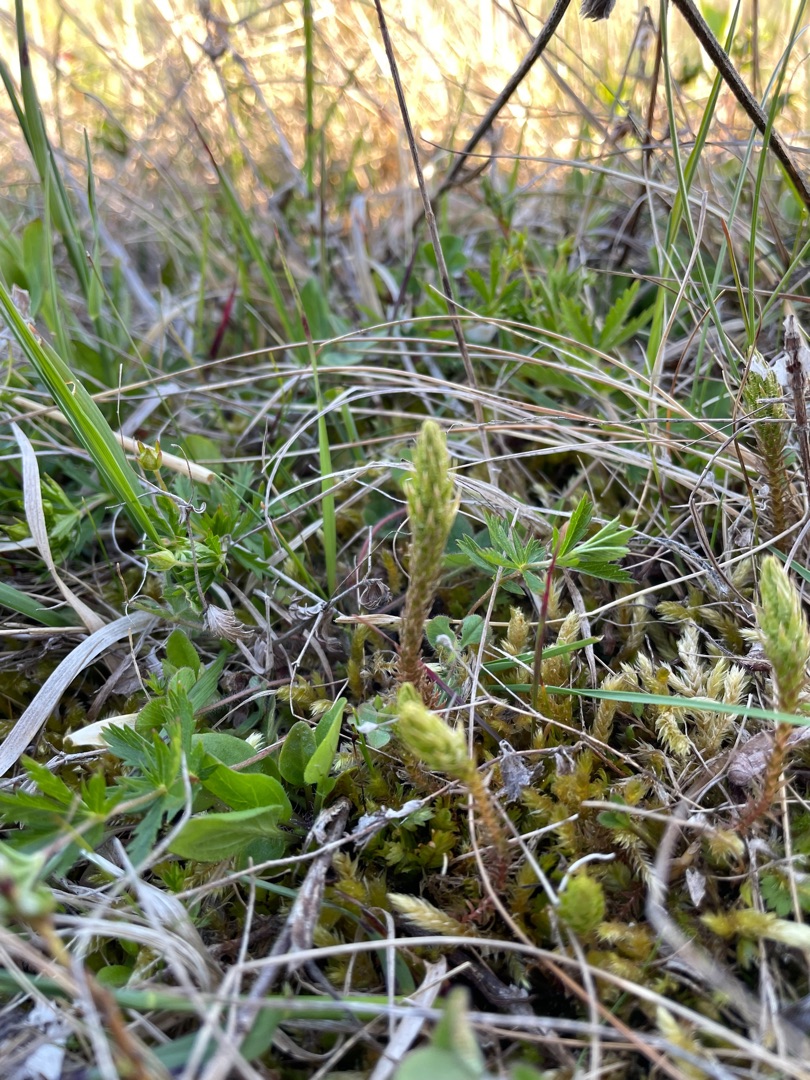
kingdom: Plantae
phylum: Tracheophyta
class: Lycopodiopsida
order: Selaginellales
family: Selaginellaceae
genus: Selaginella
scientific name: Selaginella selaginoides
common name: Dværgulvefod
